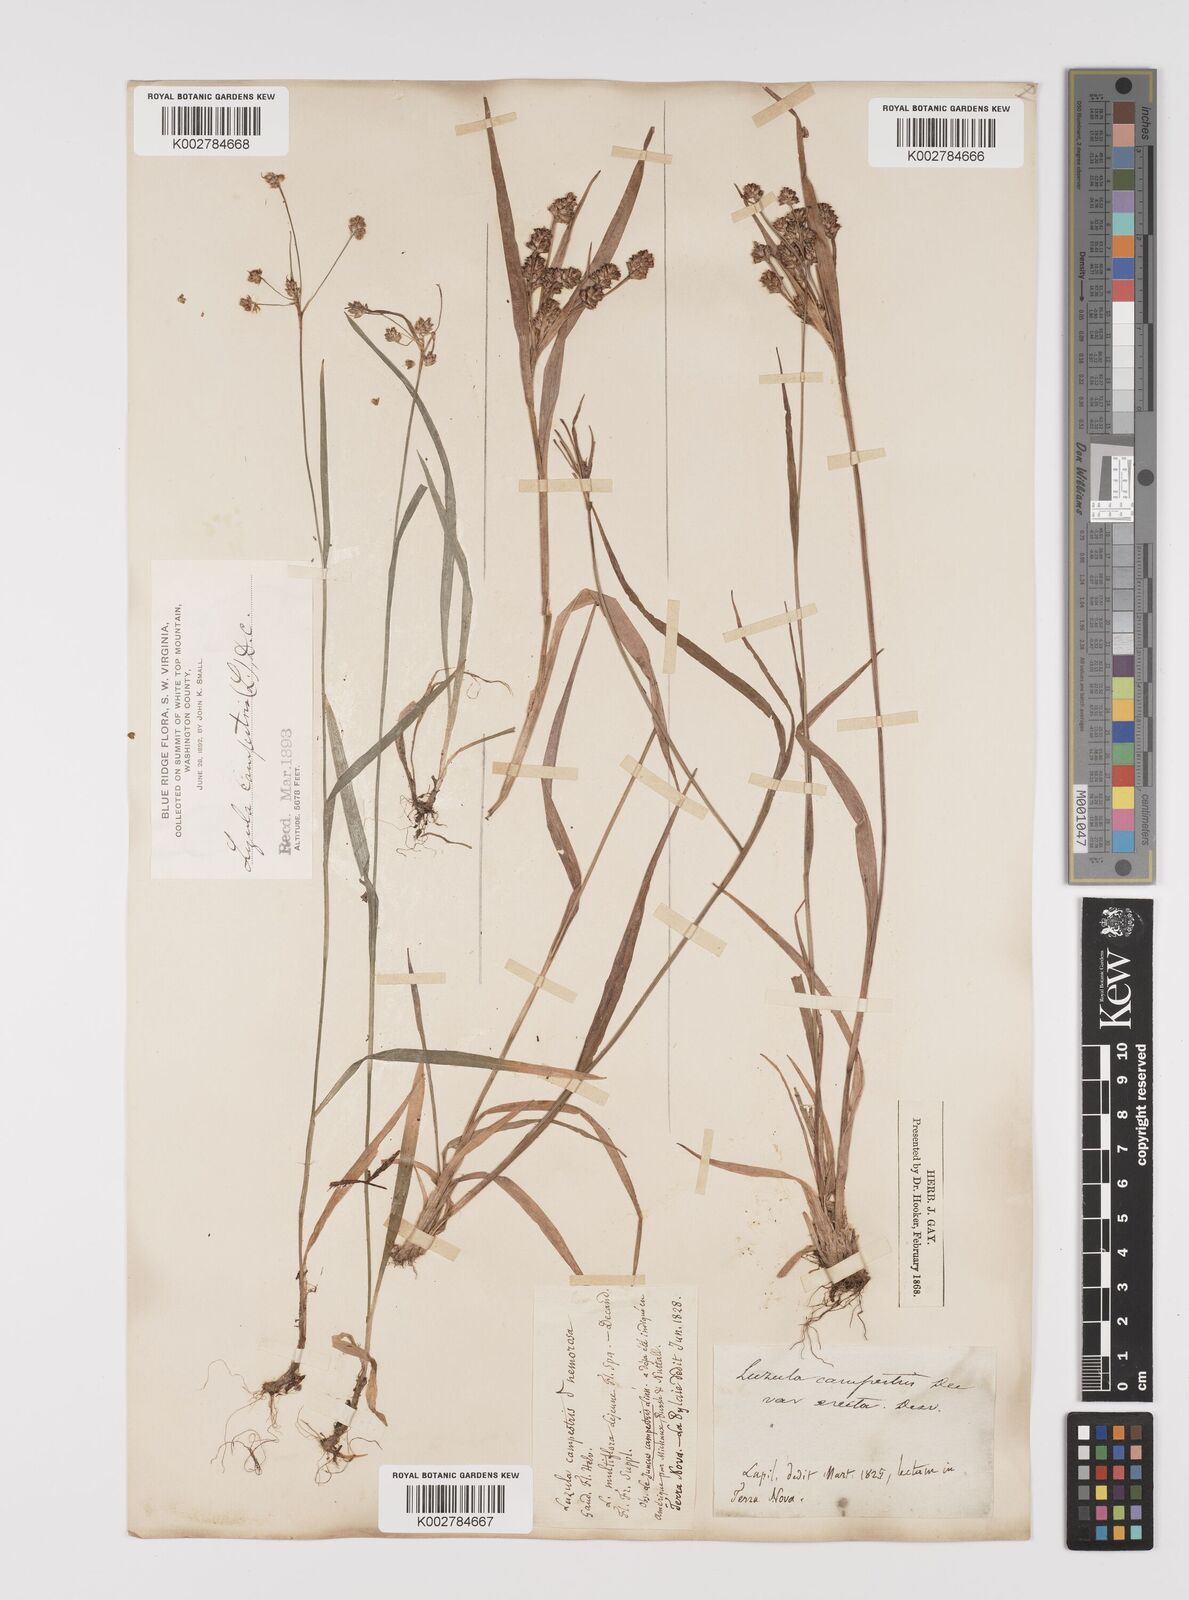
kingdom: Plantae
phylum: Tracheophyta
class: Liliopsida
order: Poales
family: Juncaceae
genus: Luzula
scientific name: Luzula campestris
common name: Field wood-rush
